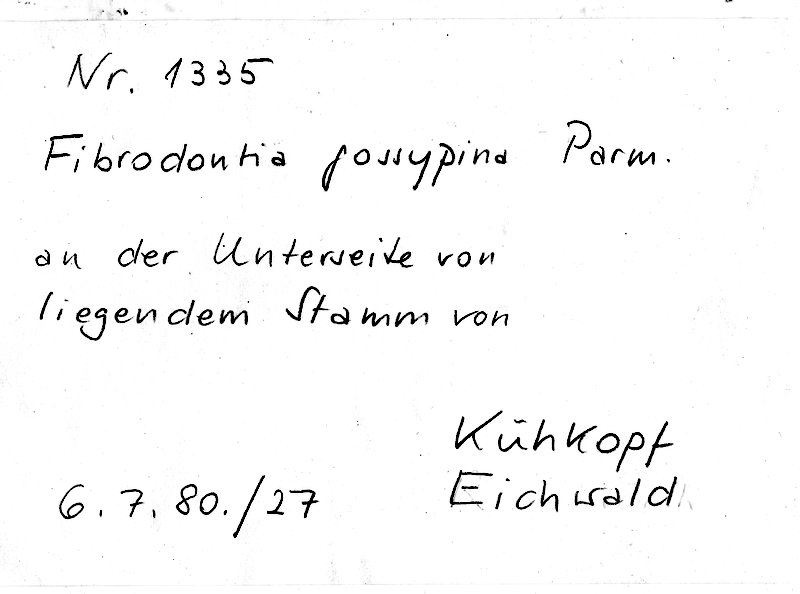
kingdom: Fungi
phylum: Basidiomycota
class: Agaricomycetes
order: Hymenochaetales
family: Schizoporaceae
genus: Fibrodontia
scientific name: Fibrodontia gossypina
